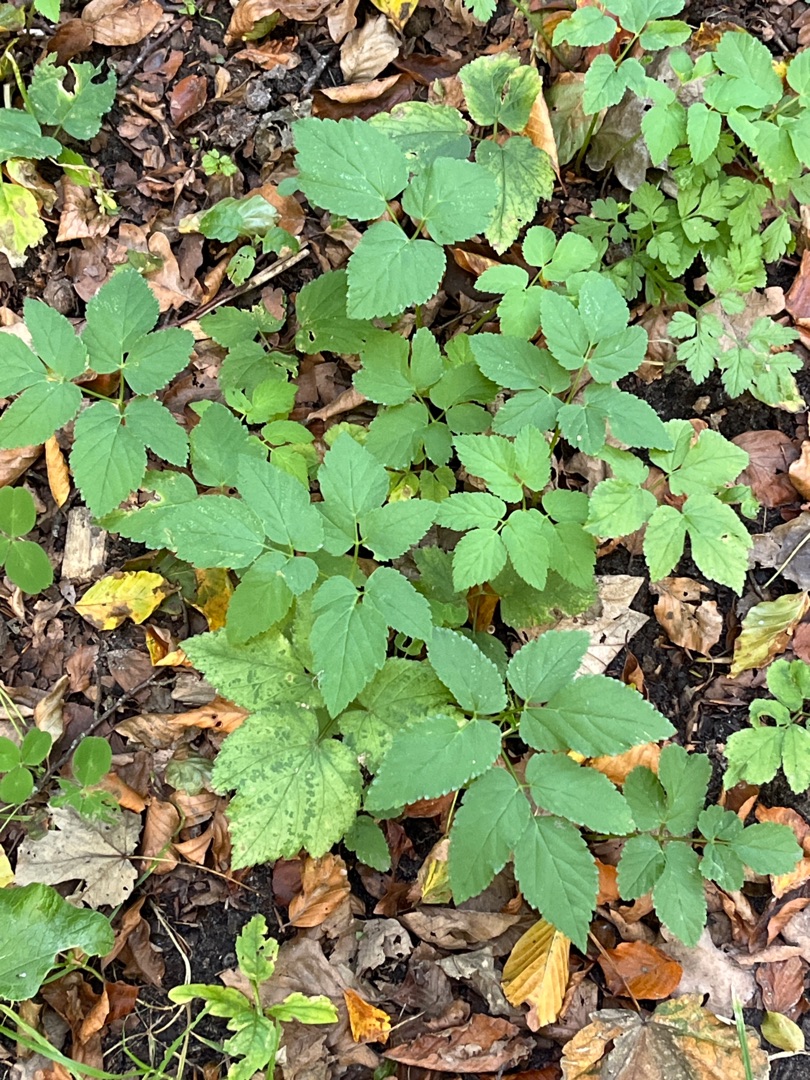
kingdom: Plantae
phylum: Tracheophyta
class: Magnoliopsida
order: Apiales
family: Apiaceae
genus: Aegopodium
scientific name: Aegopodium podagraria
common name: Skvalderkål
